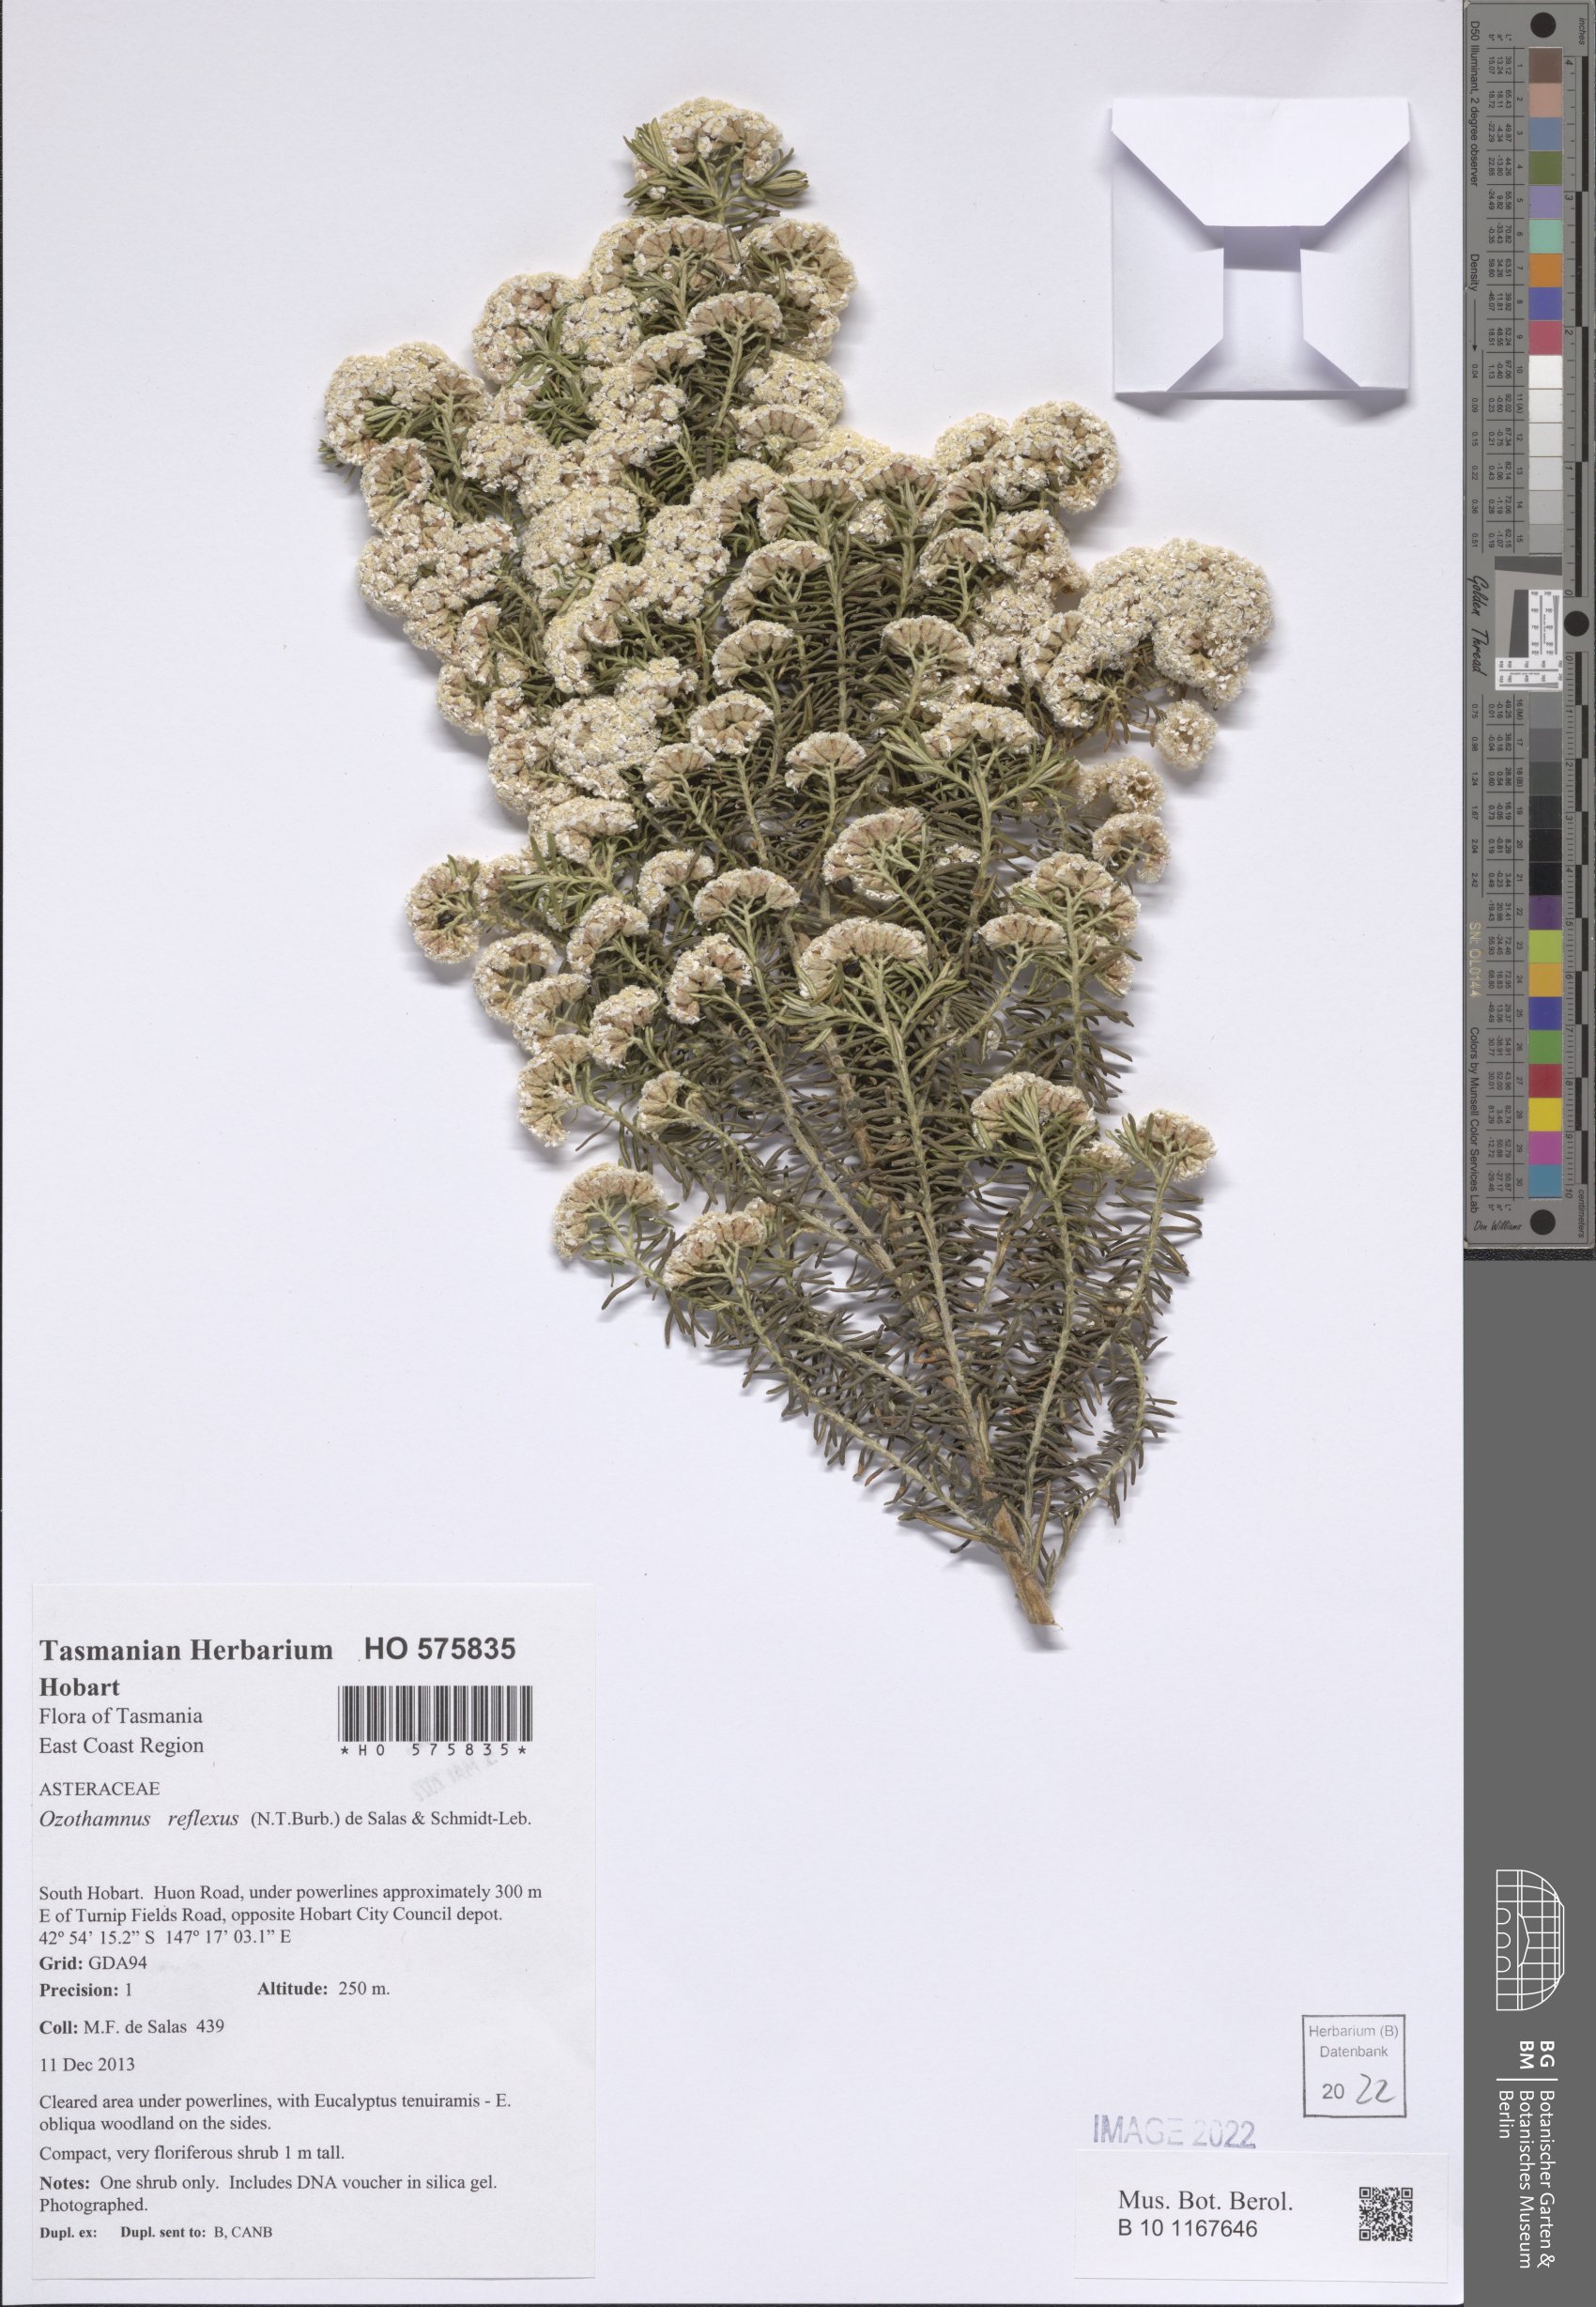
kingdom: Plantae
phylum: Tracheophyta
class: Magnoliopsida
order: Asterales
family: Asteraceae
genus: Ozothamnus
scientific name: Ozothamnus reflexus
